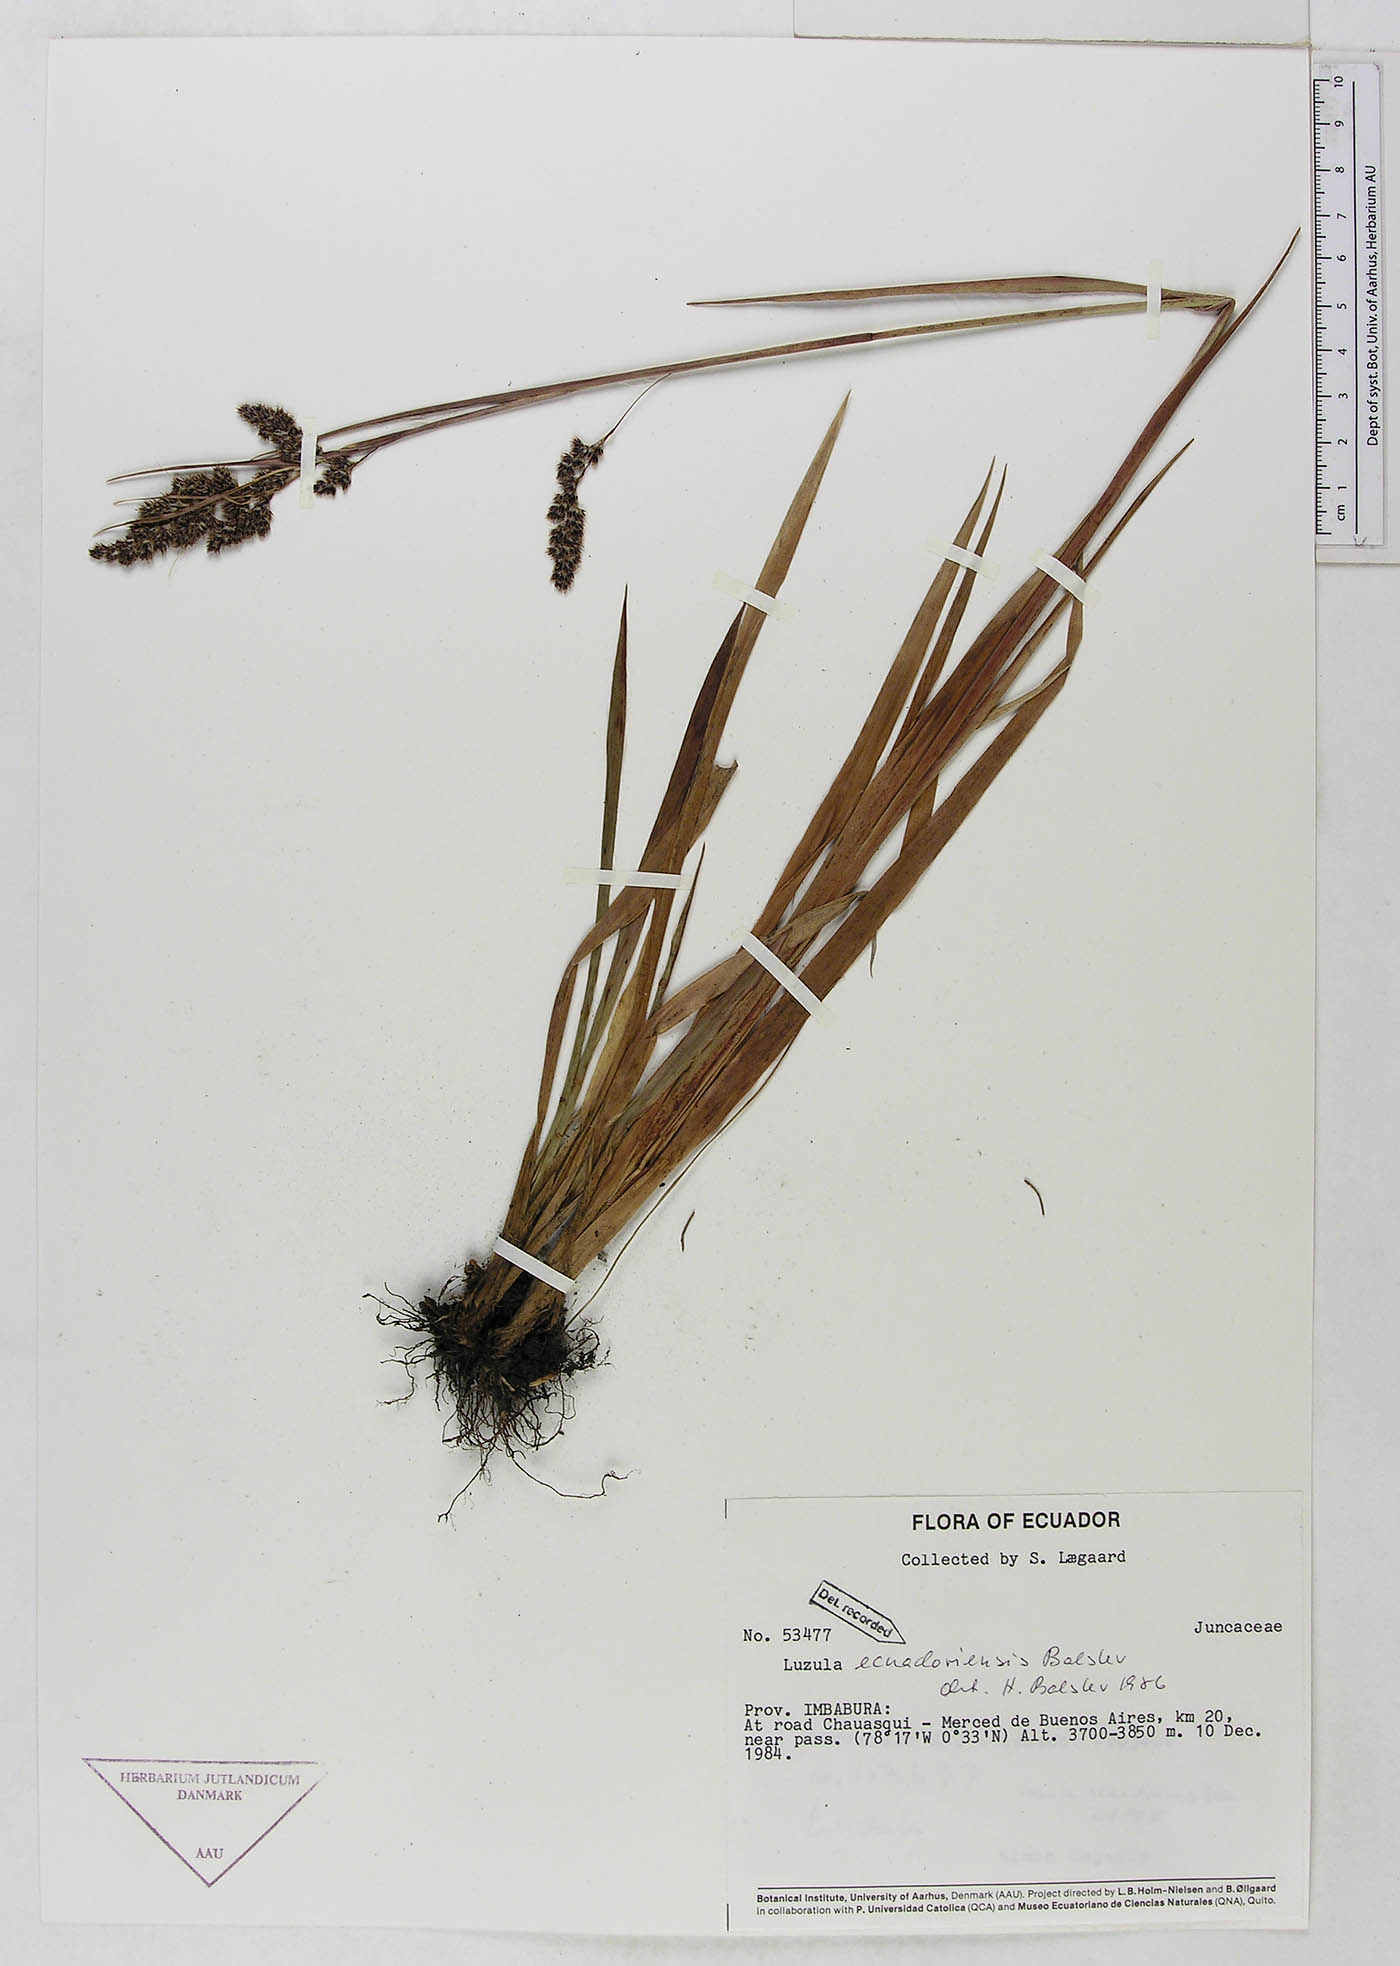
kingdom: Plantae
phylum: Tracheophyta
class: Liliopsida
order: Poales
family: Juncaceae
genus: Luzula
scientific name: Luzula ecuadoriensis
